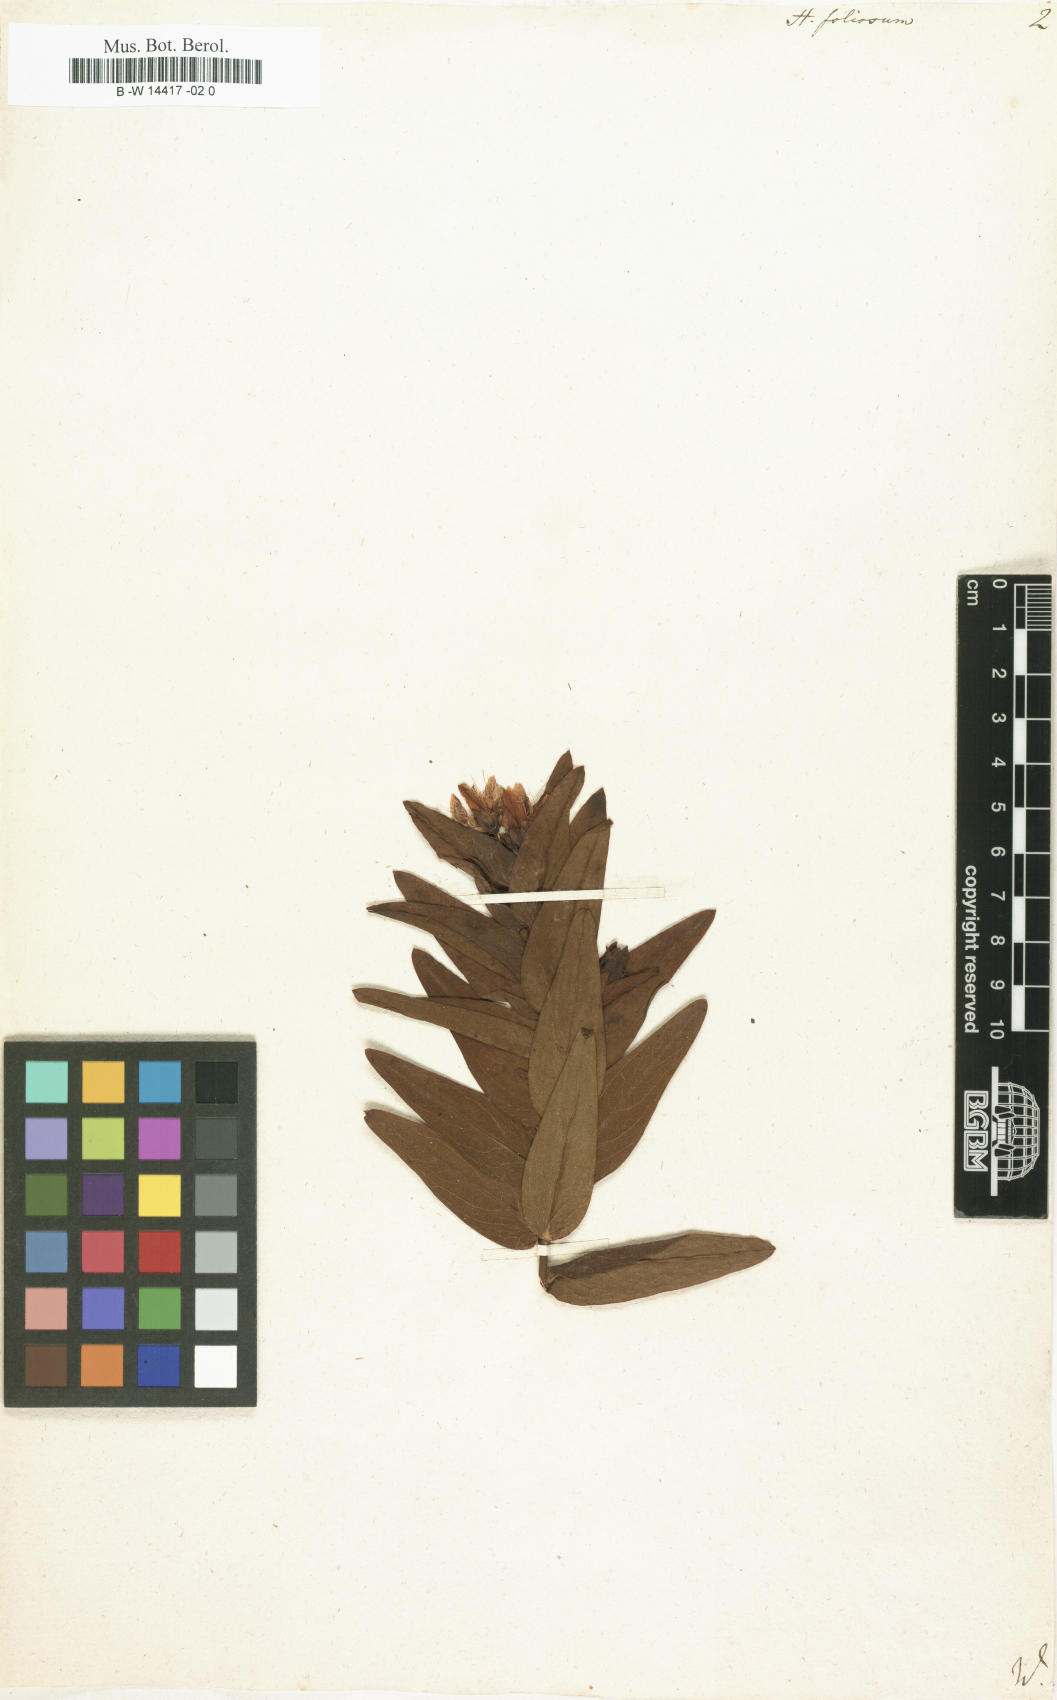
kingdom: Plantae
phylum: Tracheophyta
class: Magnoliopsida
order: Malpighiales
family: Hypericaceae
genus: Hypericum
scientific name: Hypericum foliosum
